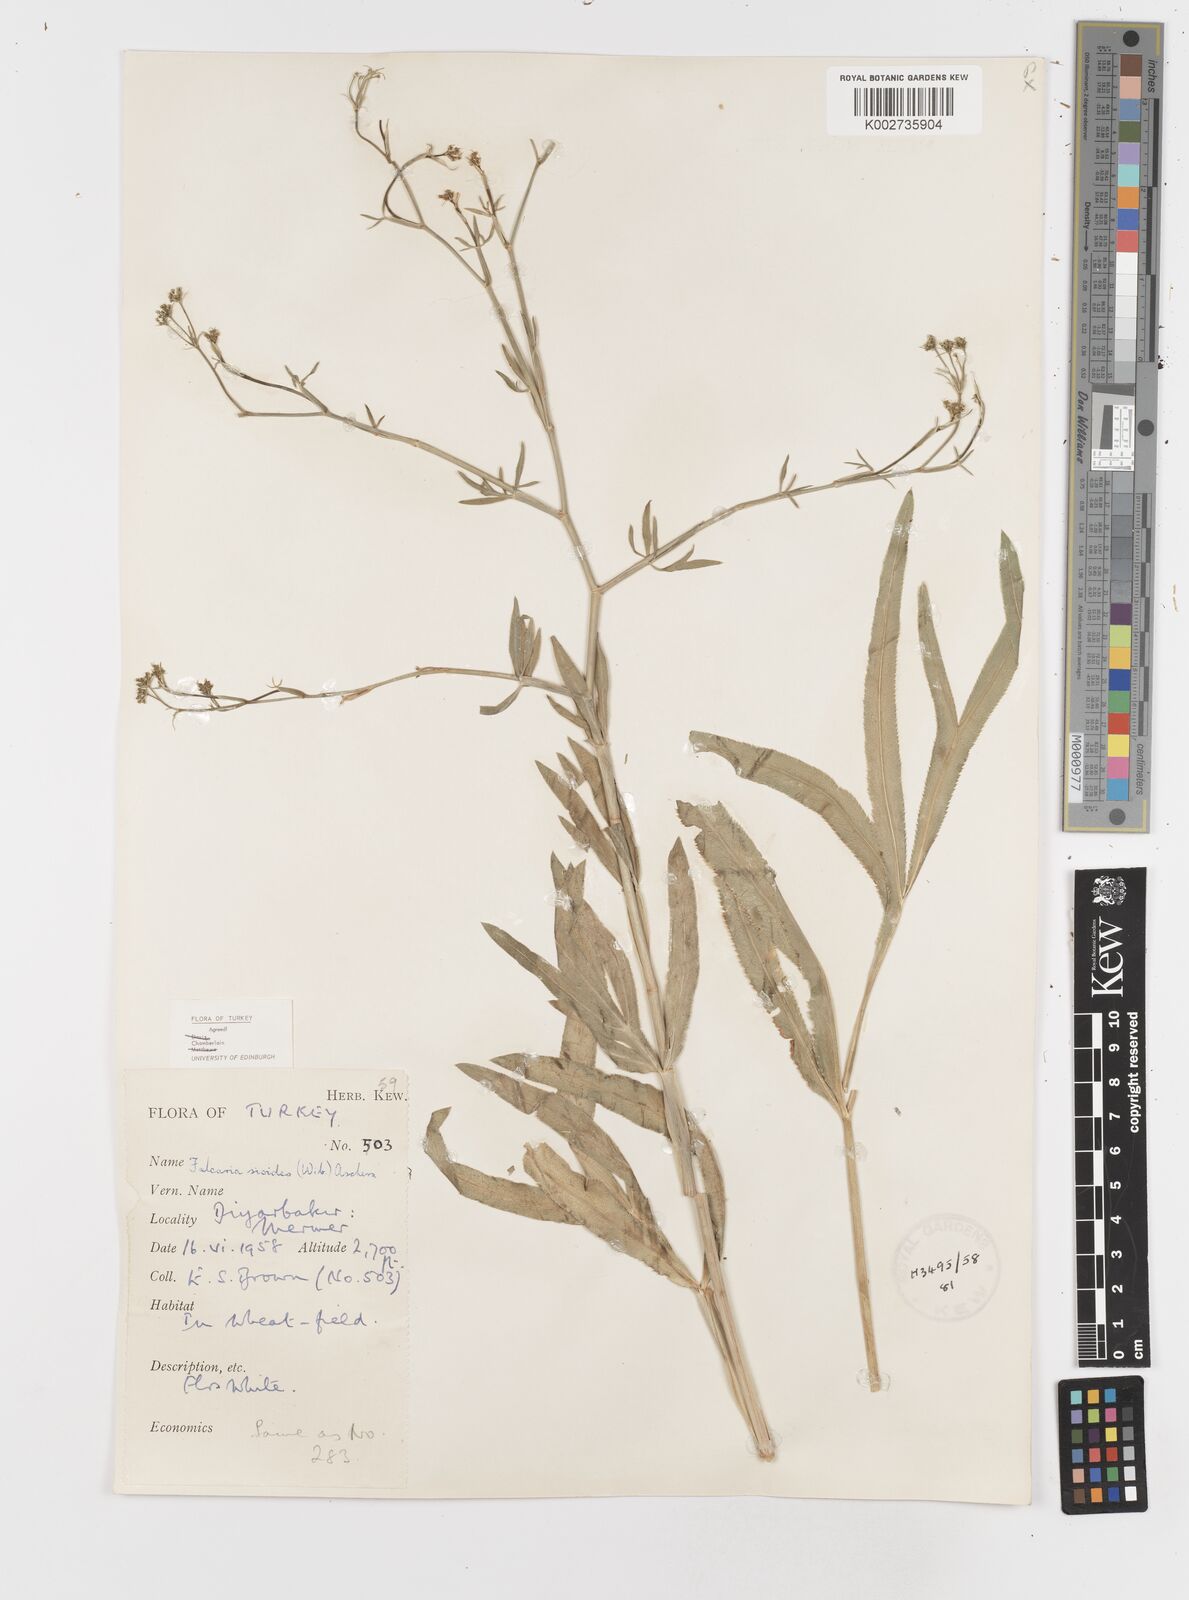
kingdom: Plantae
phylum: Tracheophyta
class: Magnoliopsida
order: Apiales
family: Apiaceae
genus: Falcaria
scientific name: Falcaria vulgaris
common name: Longleaf
